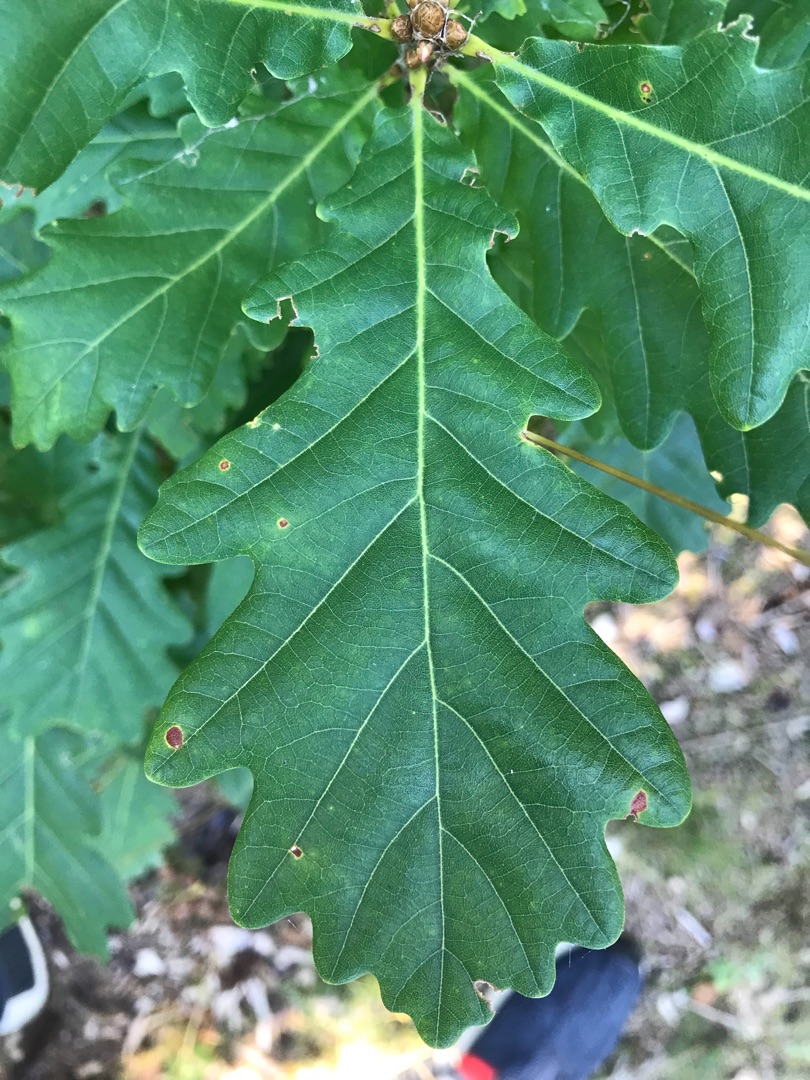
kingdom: Plantae
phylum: Tracheophyta
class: Magnoliopsida
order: Fagales
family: Fagaceae
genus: Quercus
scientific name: Quercus robur
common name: Stilk-eg/almindelig eg
